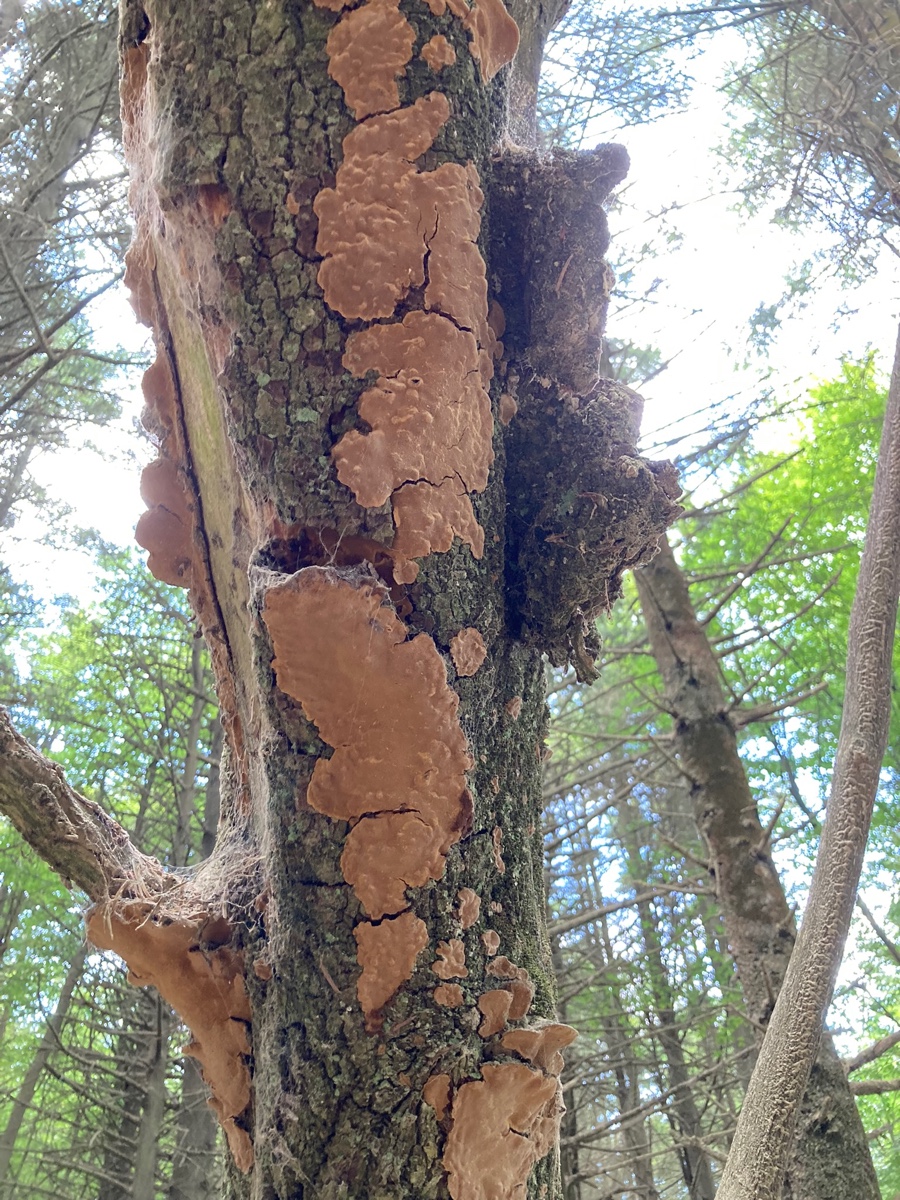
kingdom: Fungi
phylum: Basidiomycota
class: Agaricomycetes
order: Hymenochaetales
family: Hymenochaetaceae
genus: Phellinopsis
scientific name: Phellinopsis conchata
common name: pile-ildporesvamp
